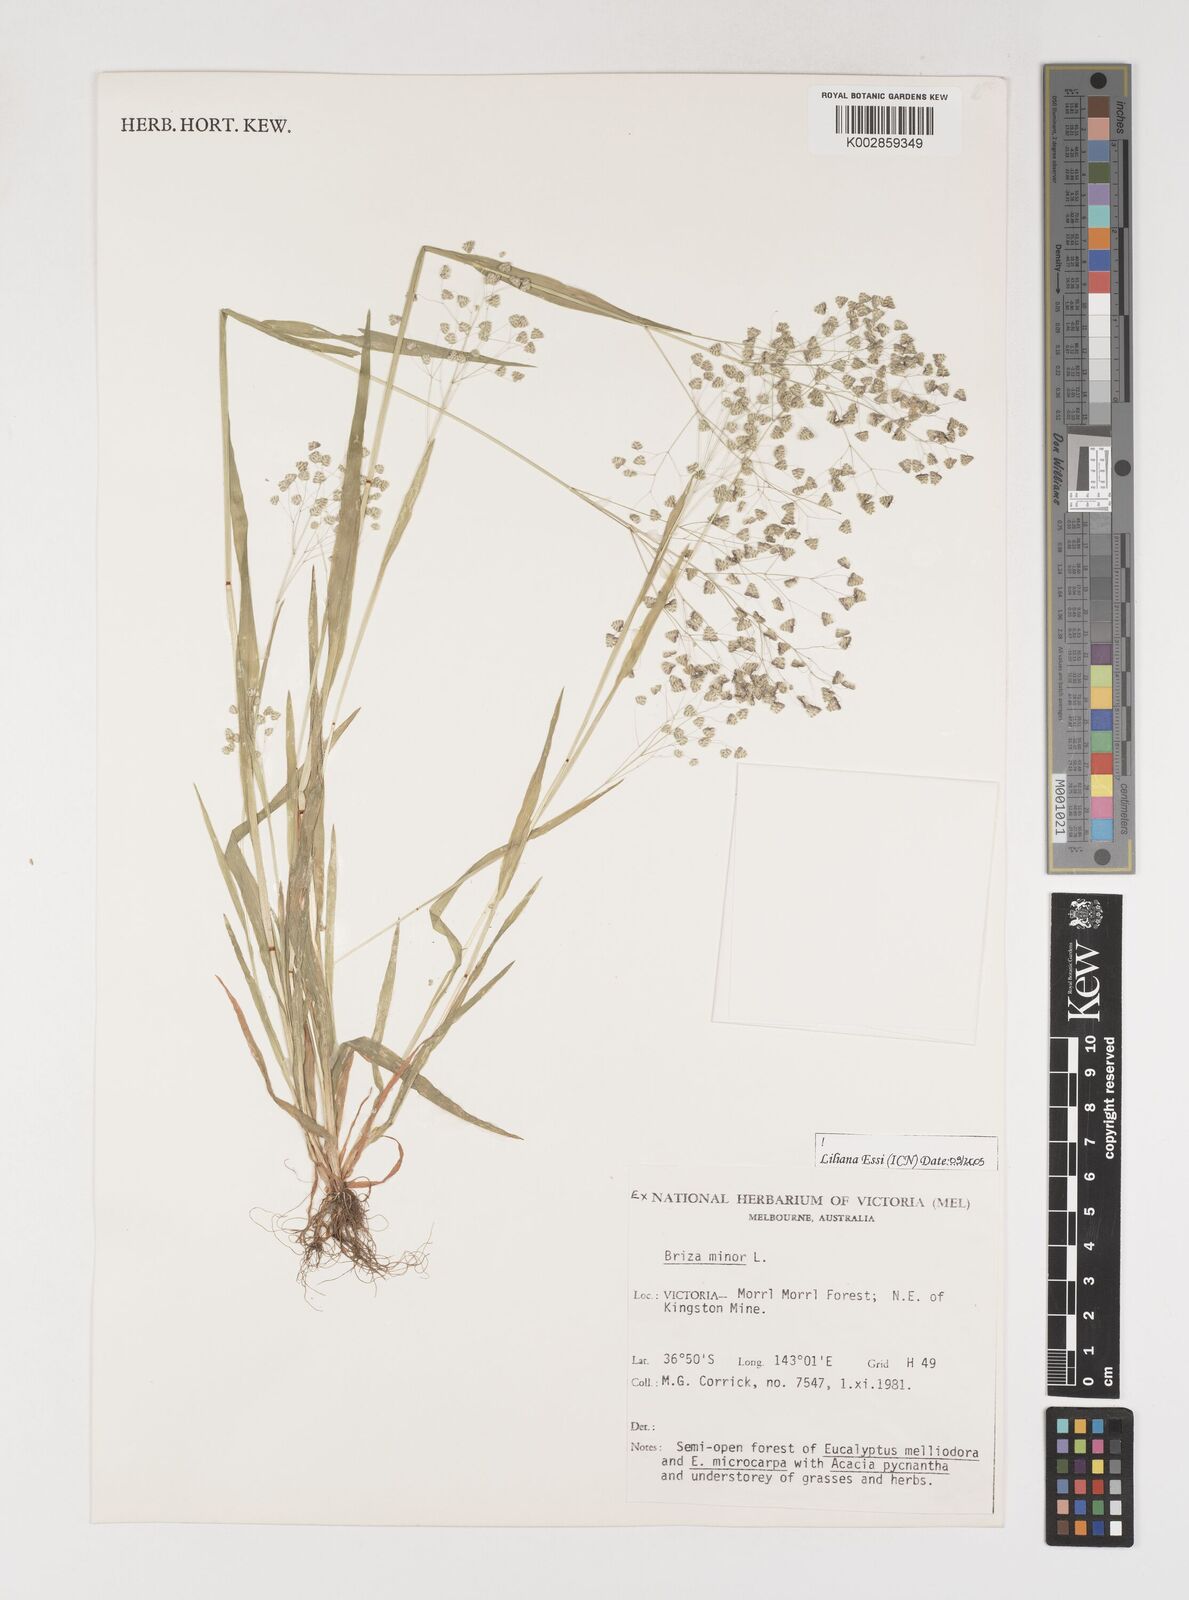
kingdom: Plantae
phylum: Tracheophyta
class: Liliopsida
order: Poales
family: Poaceae
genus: Briza
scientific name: Briza minor
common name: Lesser quaking-grass
